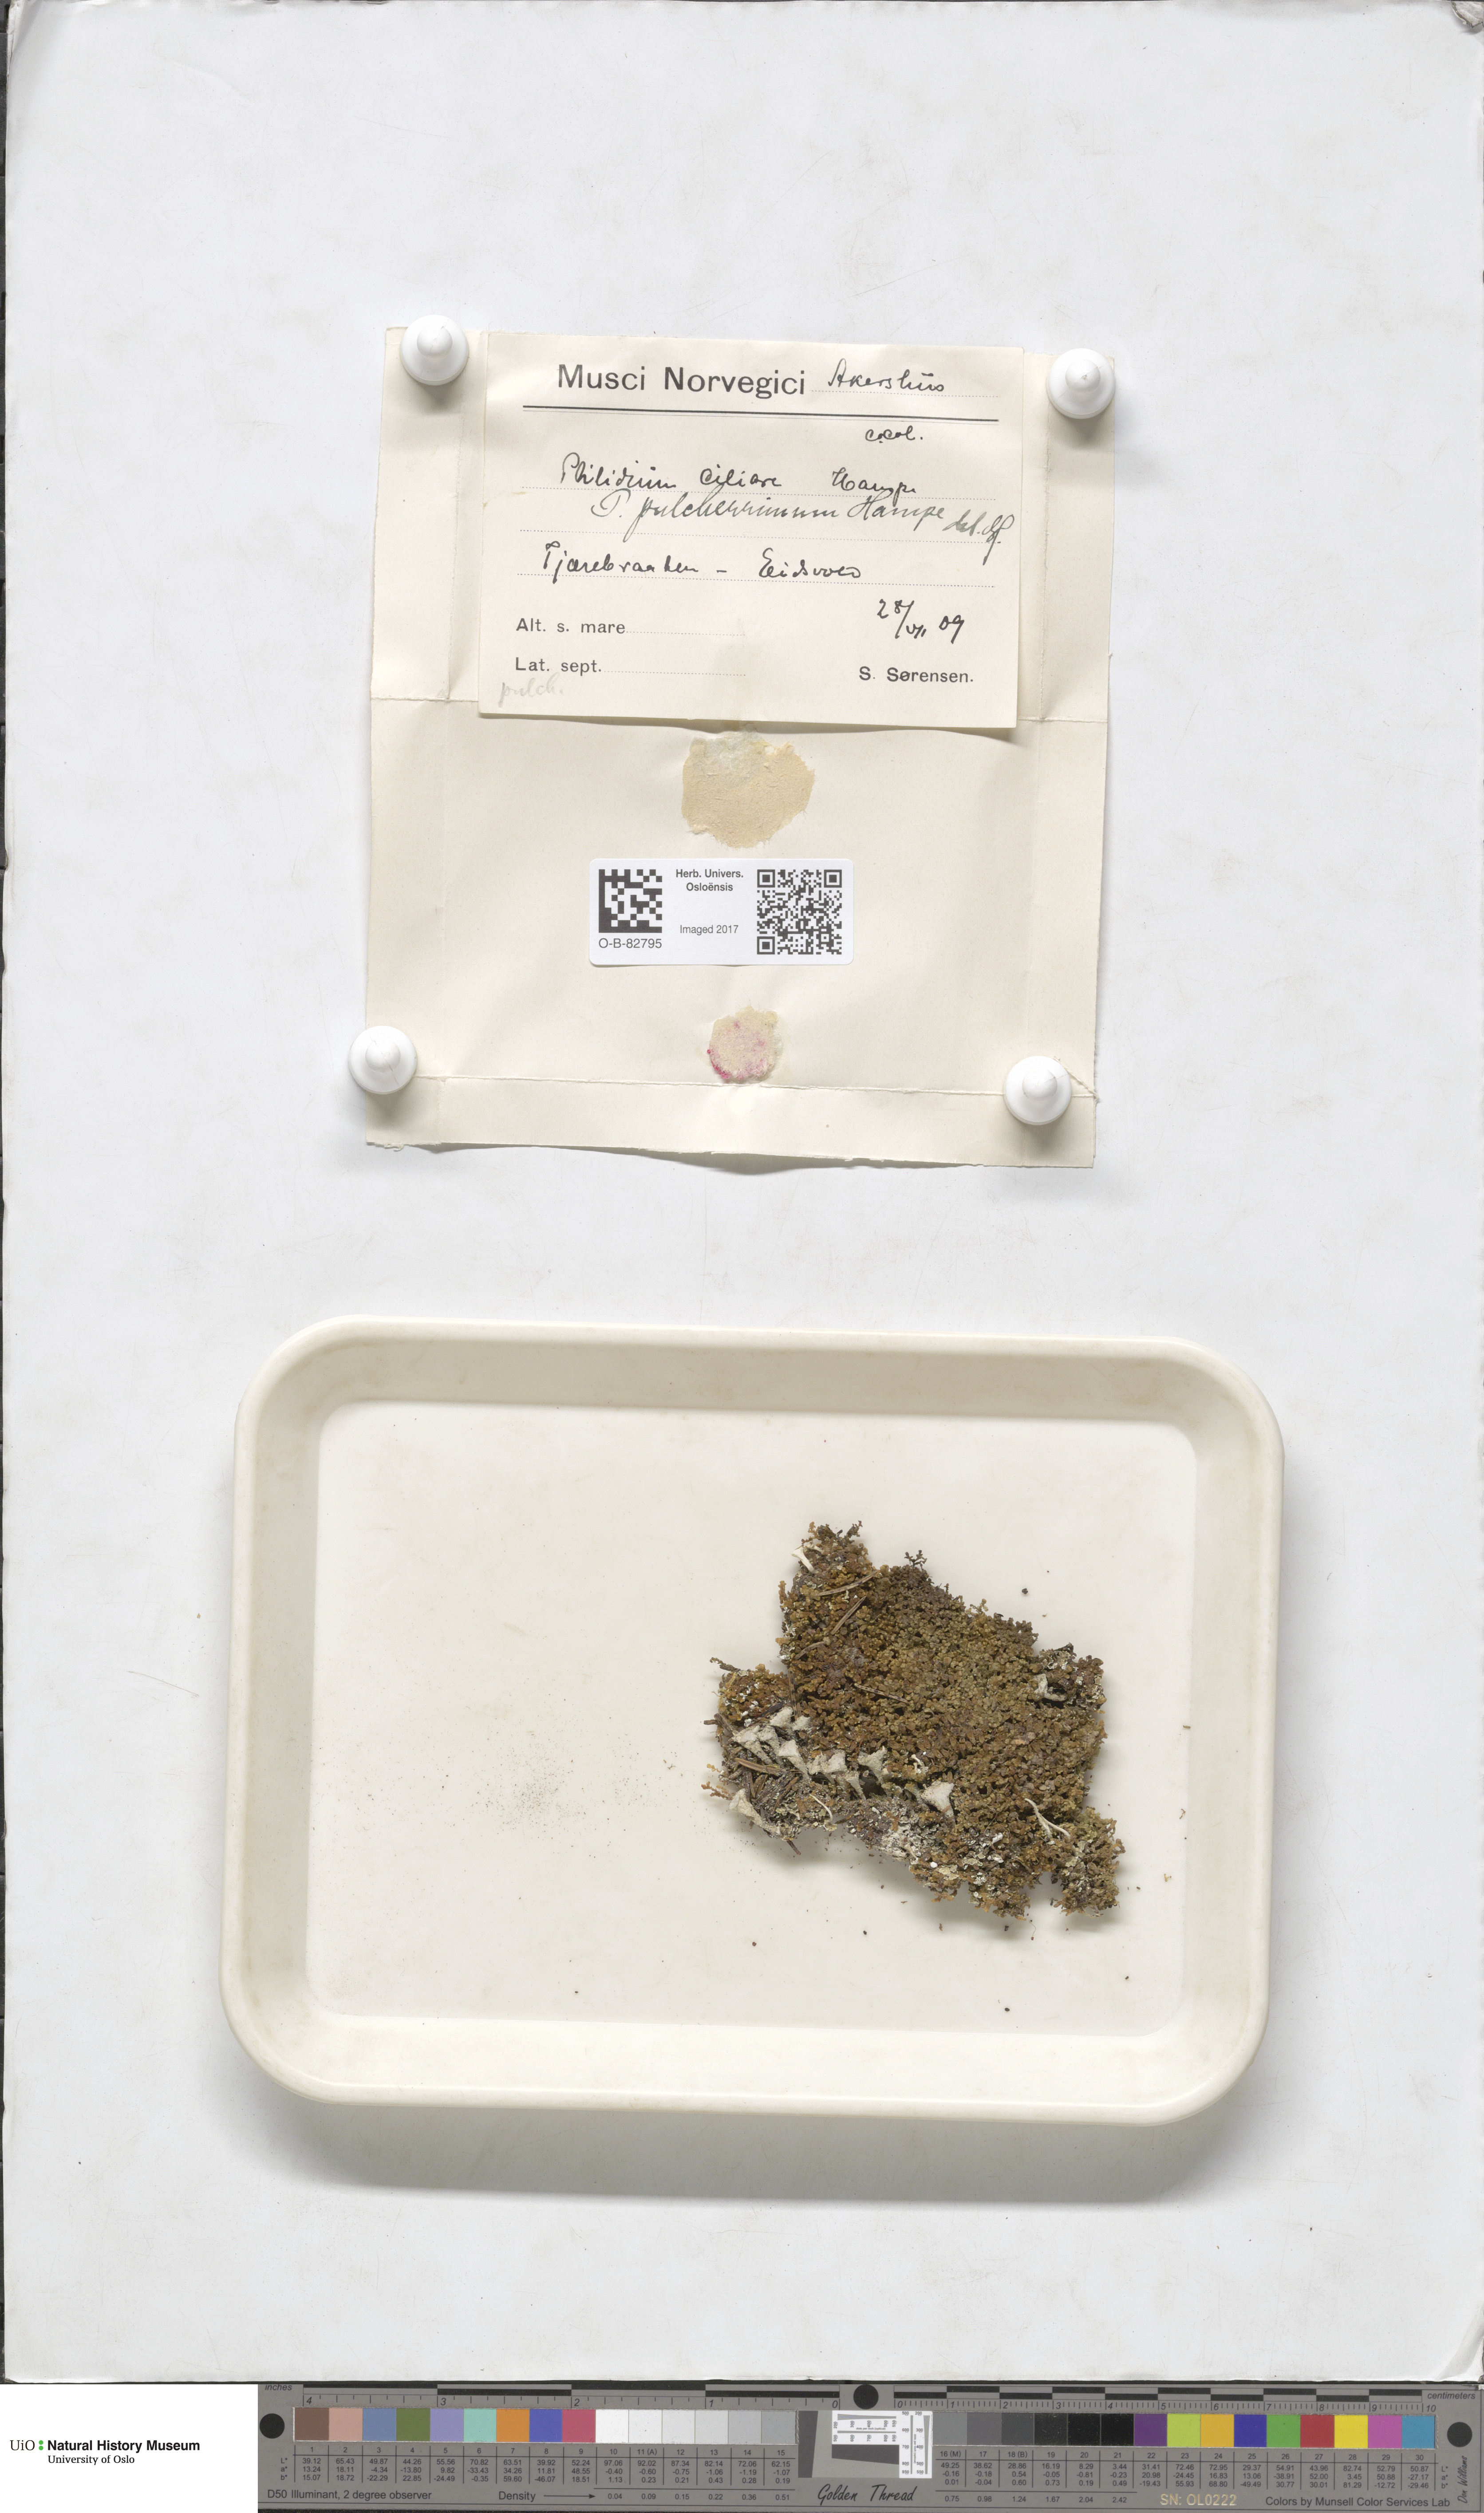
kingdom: Plantae
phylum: Marchantiophyta
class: Jungermanniopsida
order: Ptilidiales
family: Ptilidiaceae
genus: Ptilidium
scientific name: Ptilidium pulcherrimum
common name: Tree fringewort
